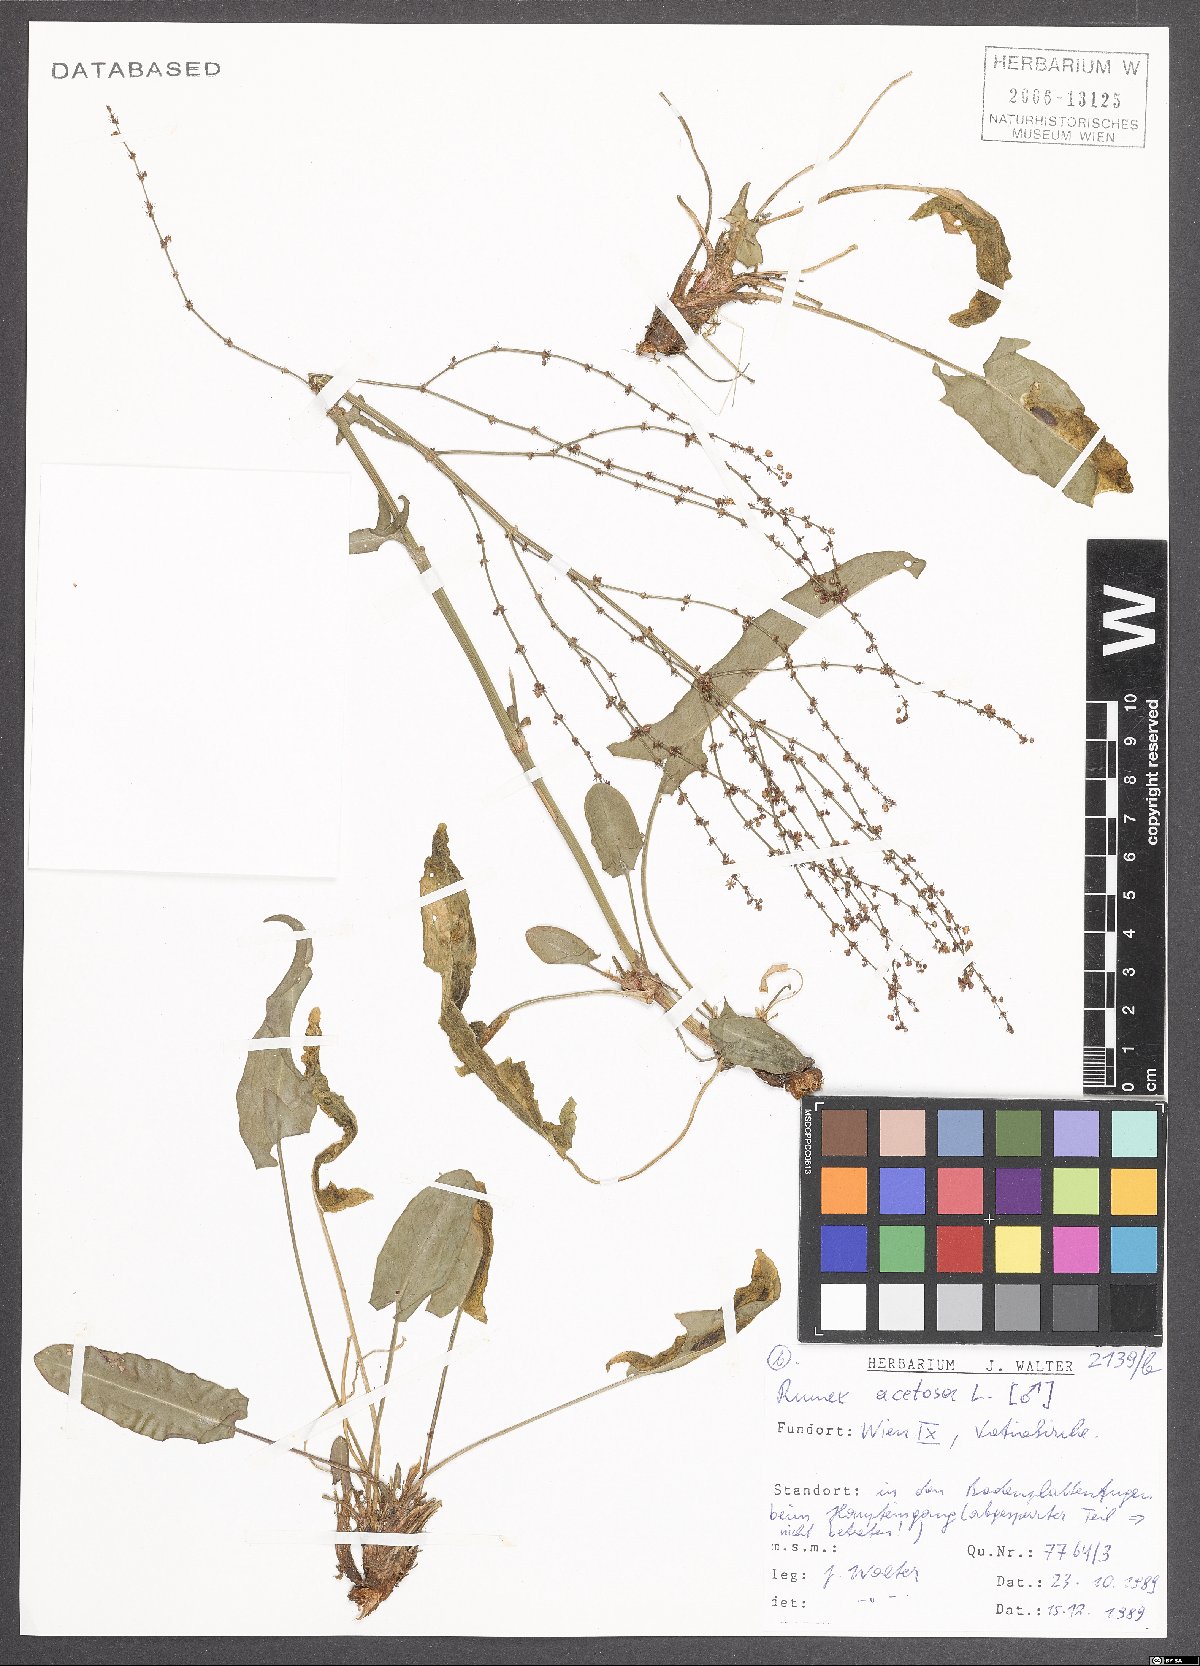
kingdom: Plantae
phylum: Tracheophyta
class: Magnoliopsida
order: Caryophyllales
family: Polygonaceae
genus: Rumex
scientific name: Rumex acetosa
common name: Garden sorrel
